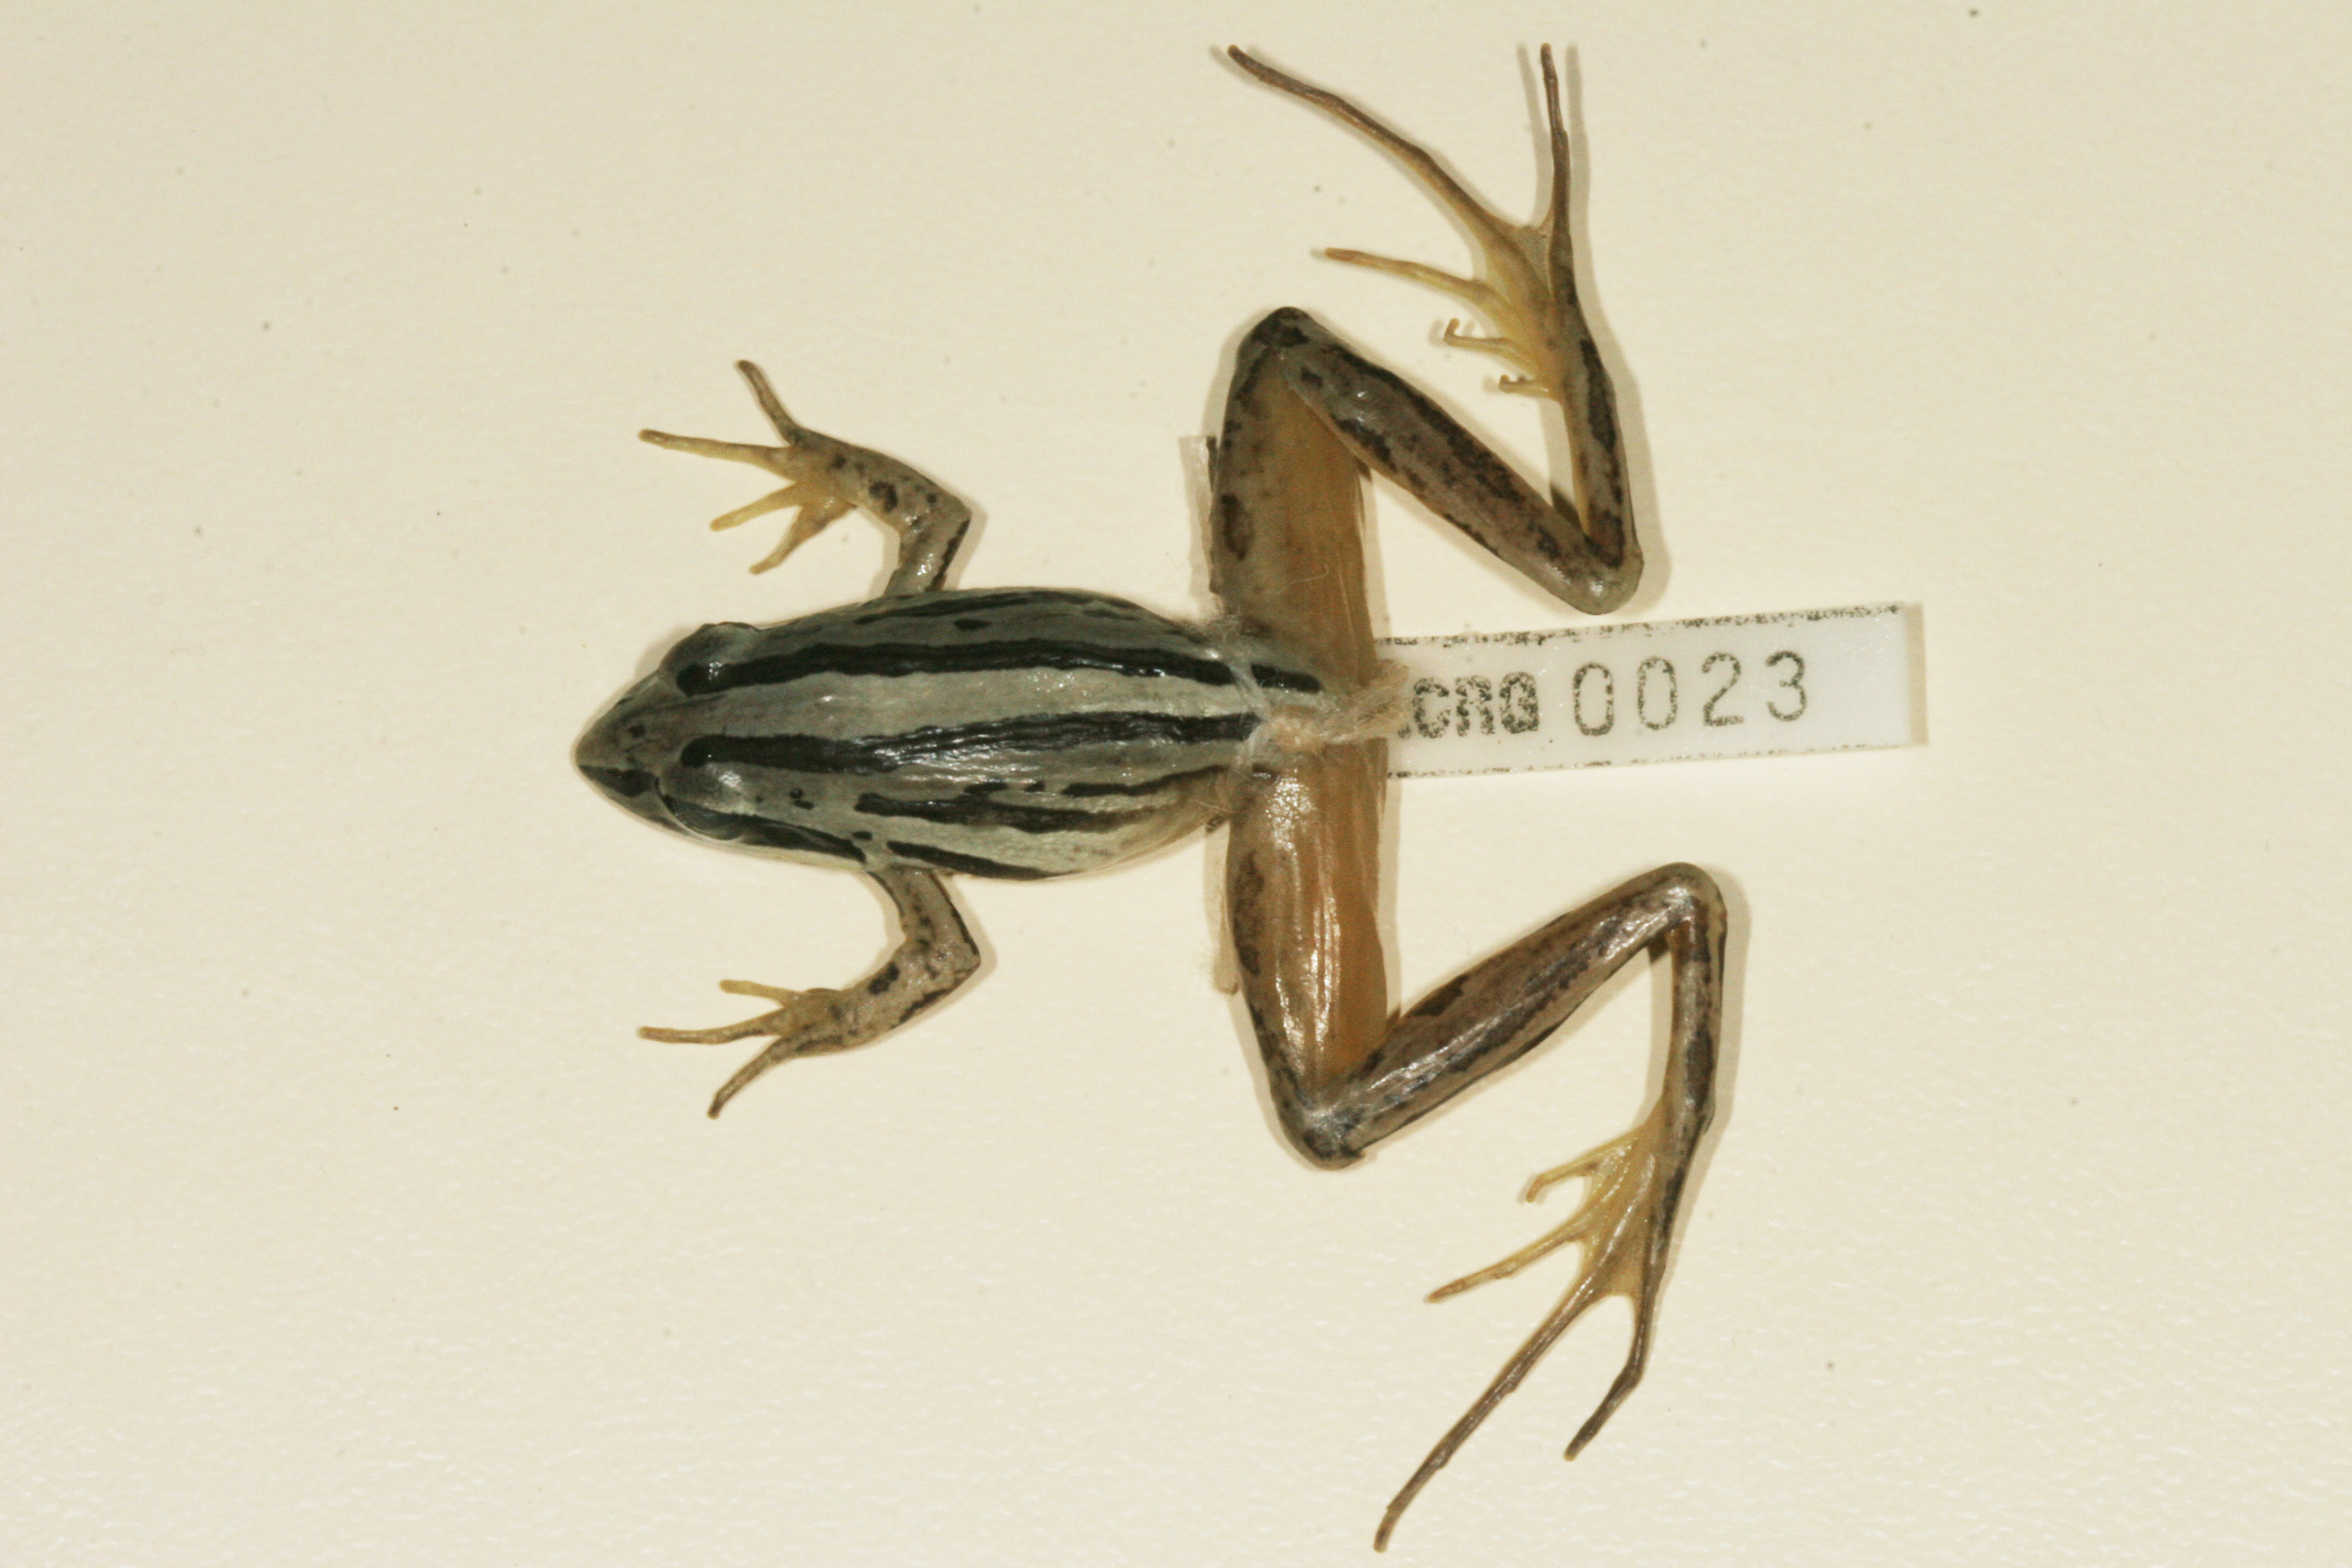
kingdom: Animalia
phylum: Chordata
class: Amphibia
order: Anura
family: Pyxicephalidae
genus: Strongylopus
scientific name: Strongylopus fasciatus
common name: Striped stream frog
